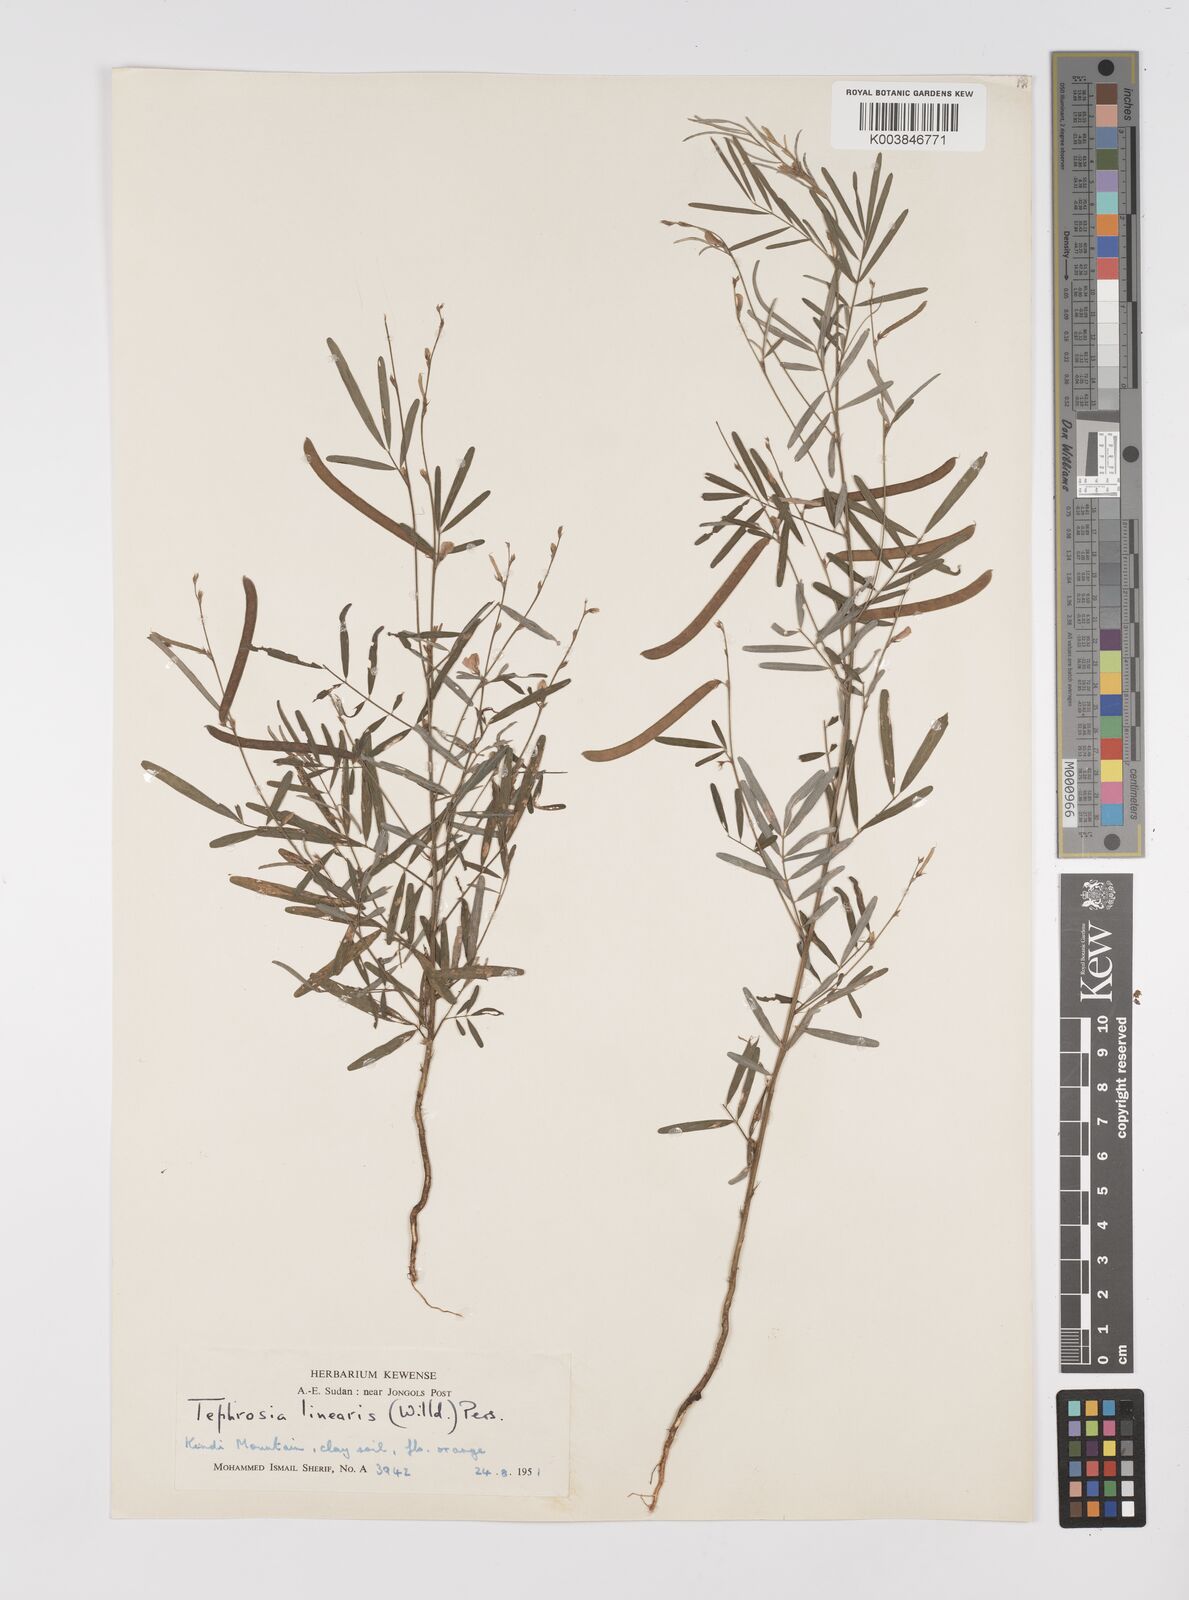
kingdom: Plantae
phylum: Tracheophyta
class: Magnoliopsida
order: Fabales
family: Fabaceae
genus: Tephrosia
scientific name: Tephrosia linearis
